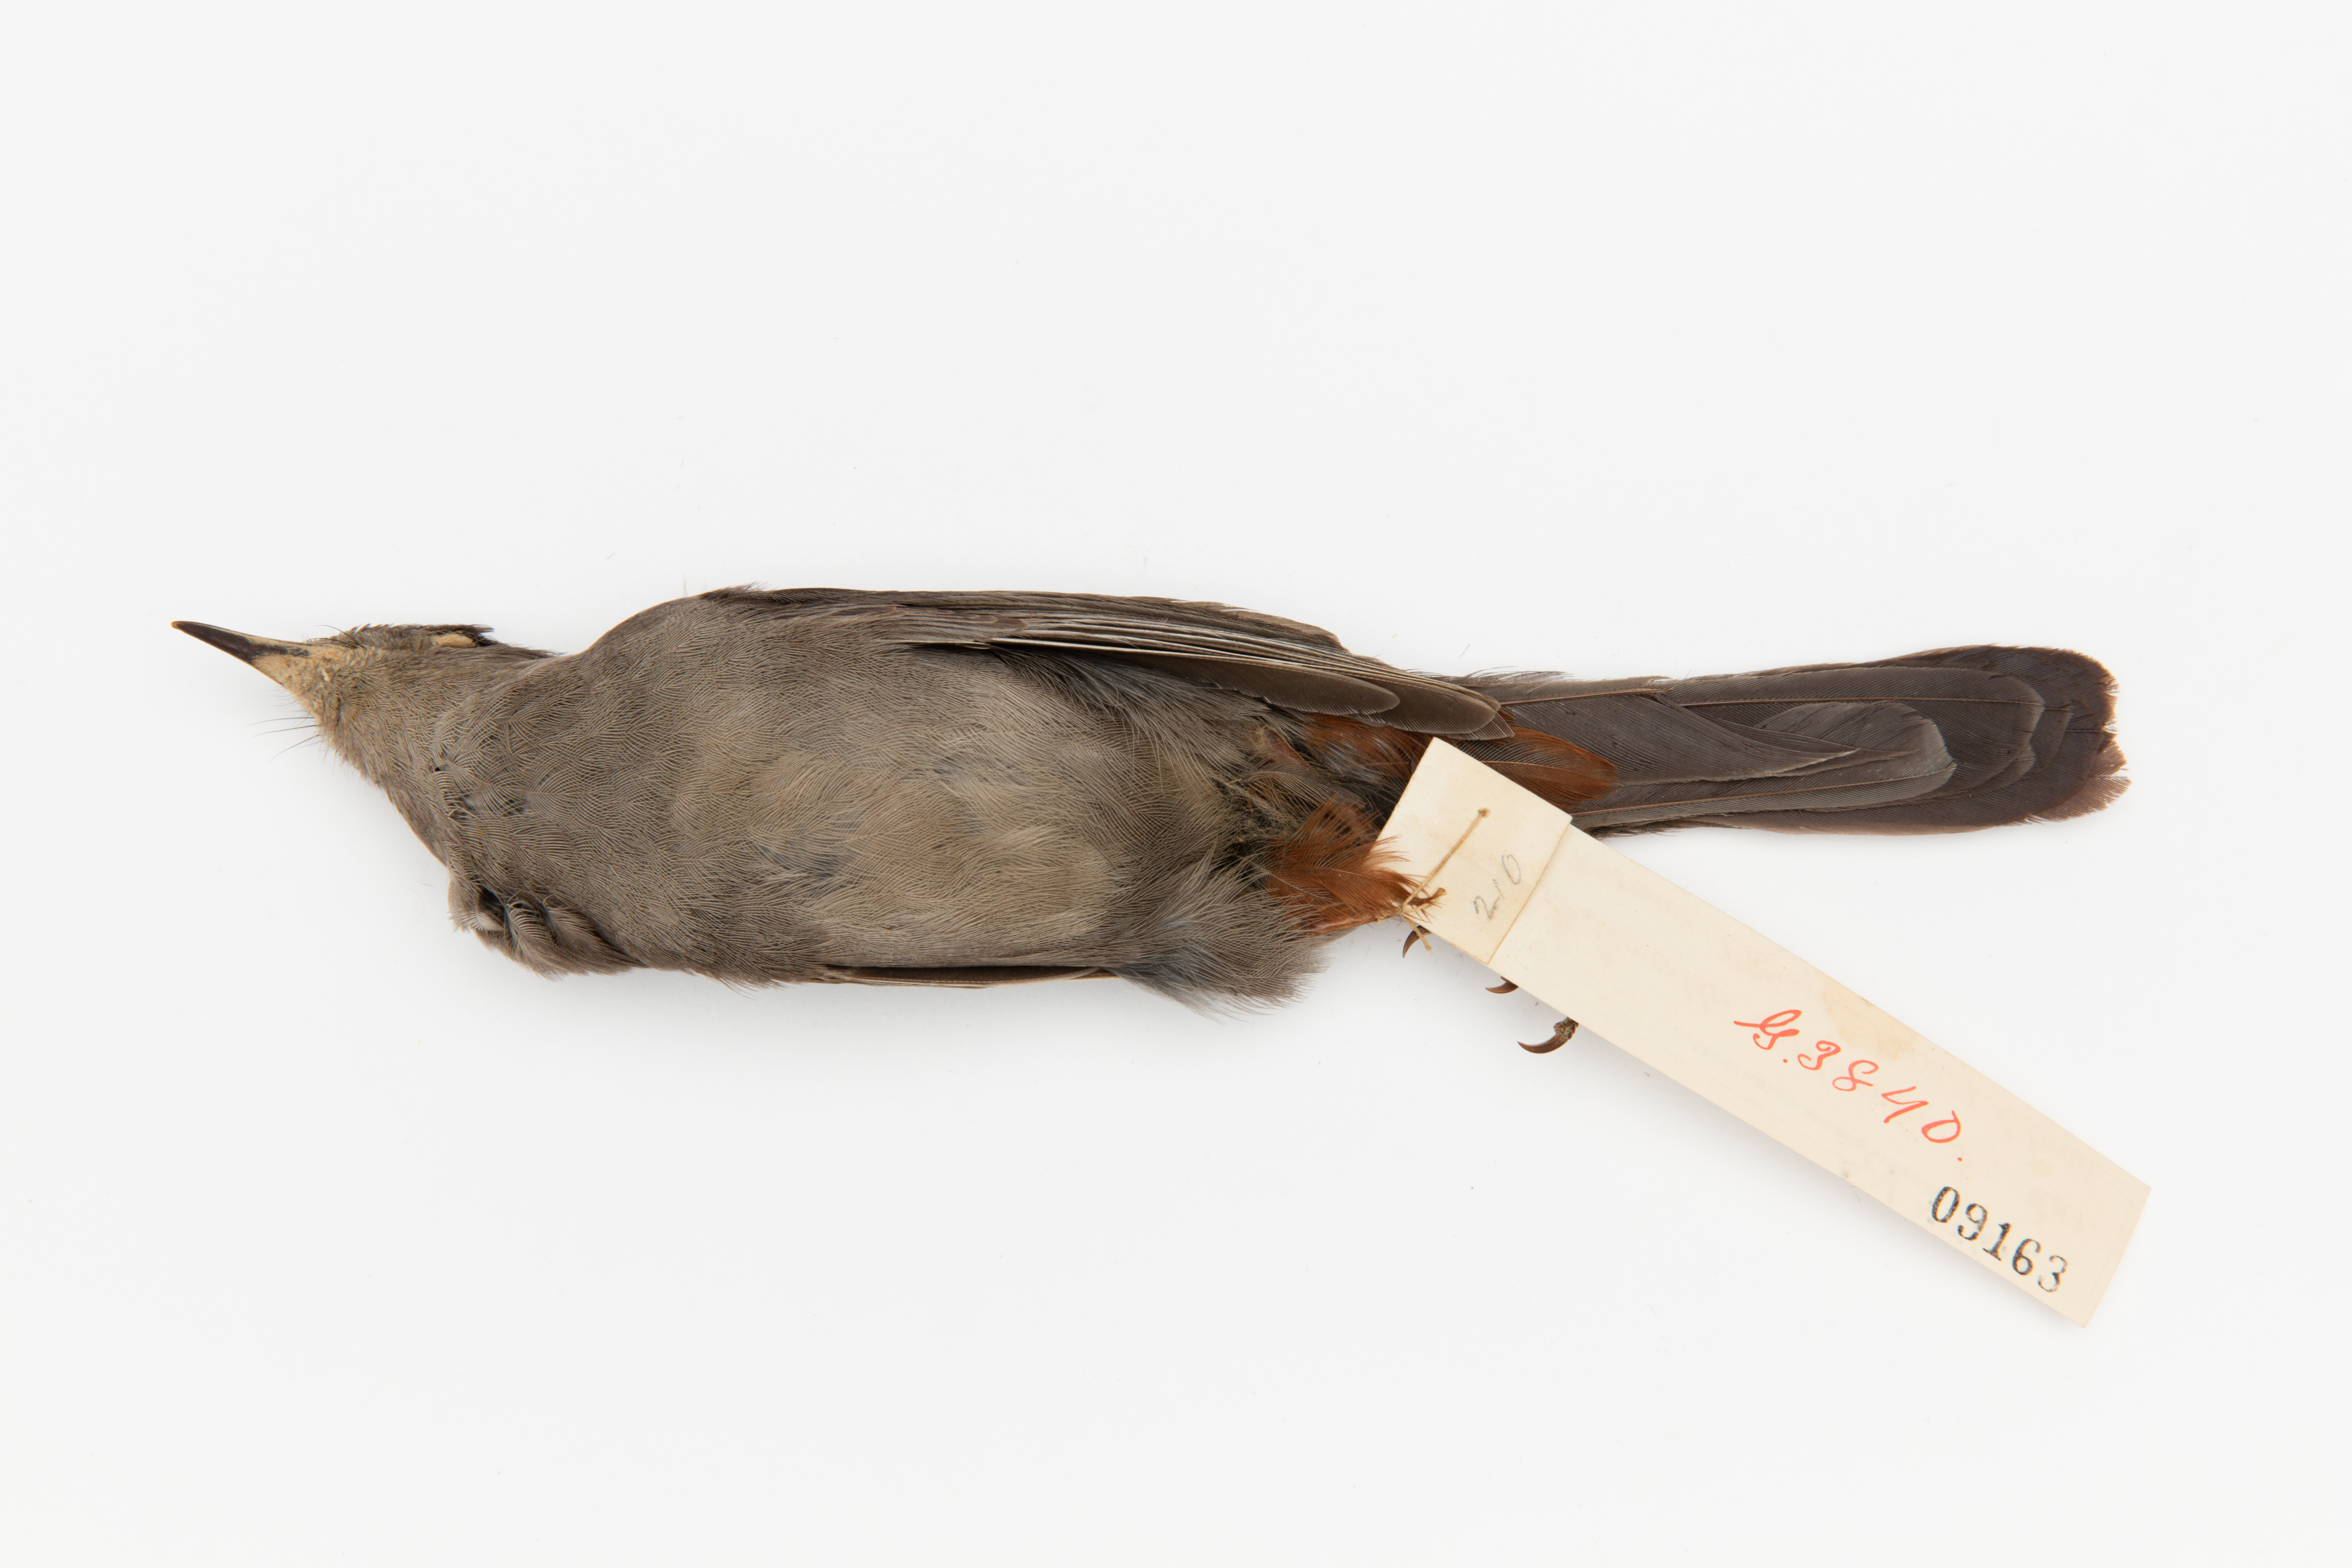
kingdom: Animalia
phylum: Chordata
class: Aves
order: Passeriformes
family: Mimidae
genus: Dumetella
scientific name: Dumetella carolinensis
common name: Gray catbird
